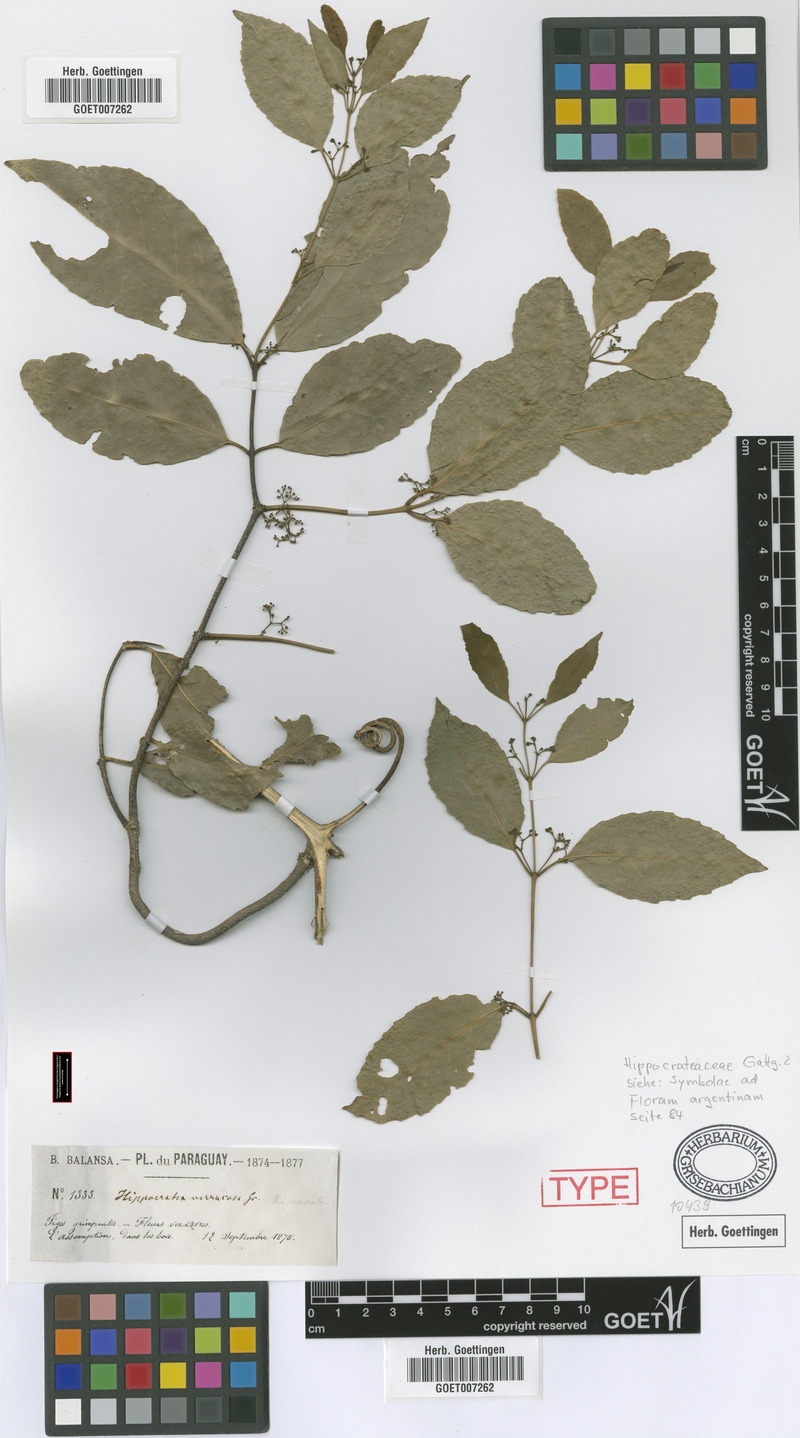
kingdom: Plantae
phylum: Tracheophyta
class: Magnoliopsida
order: Celastrales
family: Celastraceae
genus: Pristimera
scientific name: Pristimera celastroides
